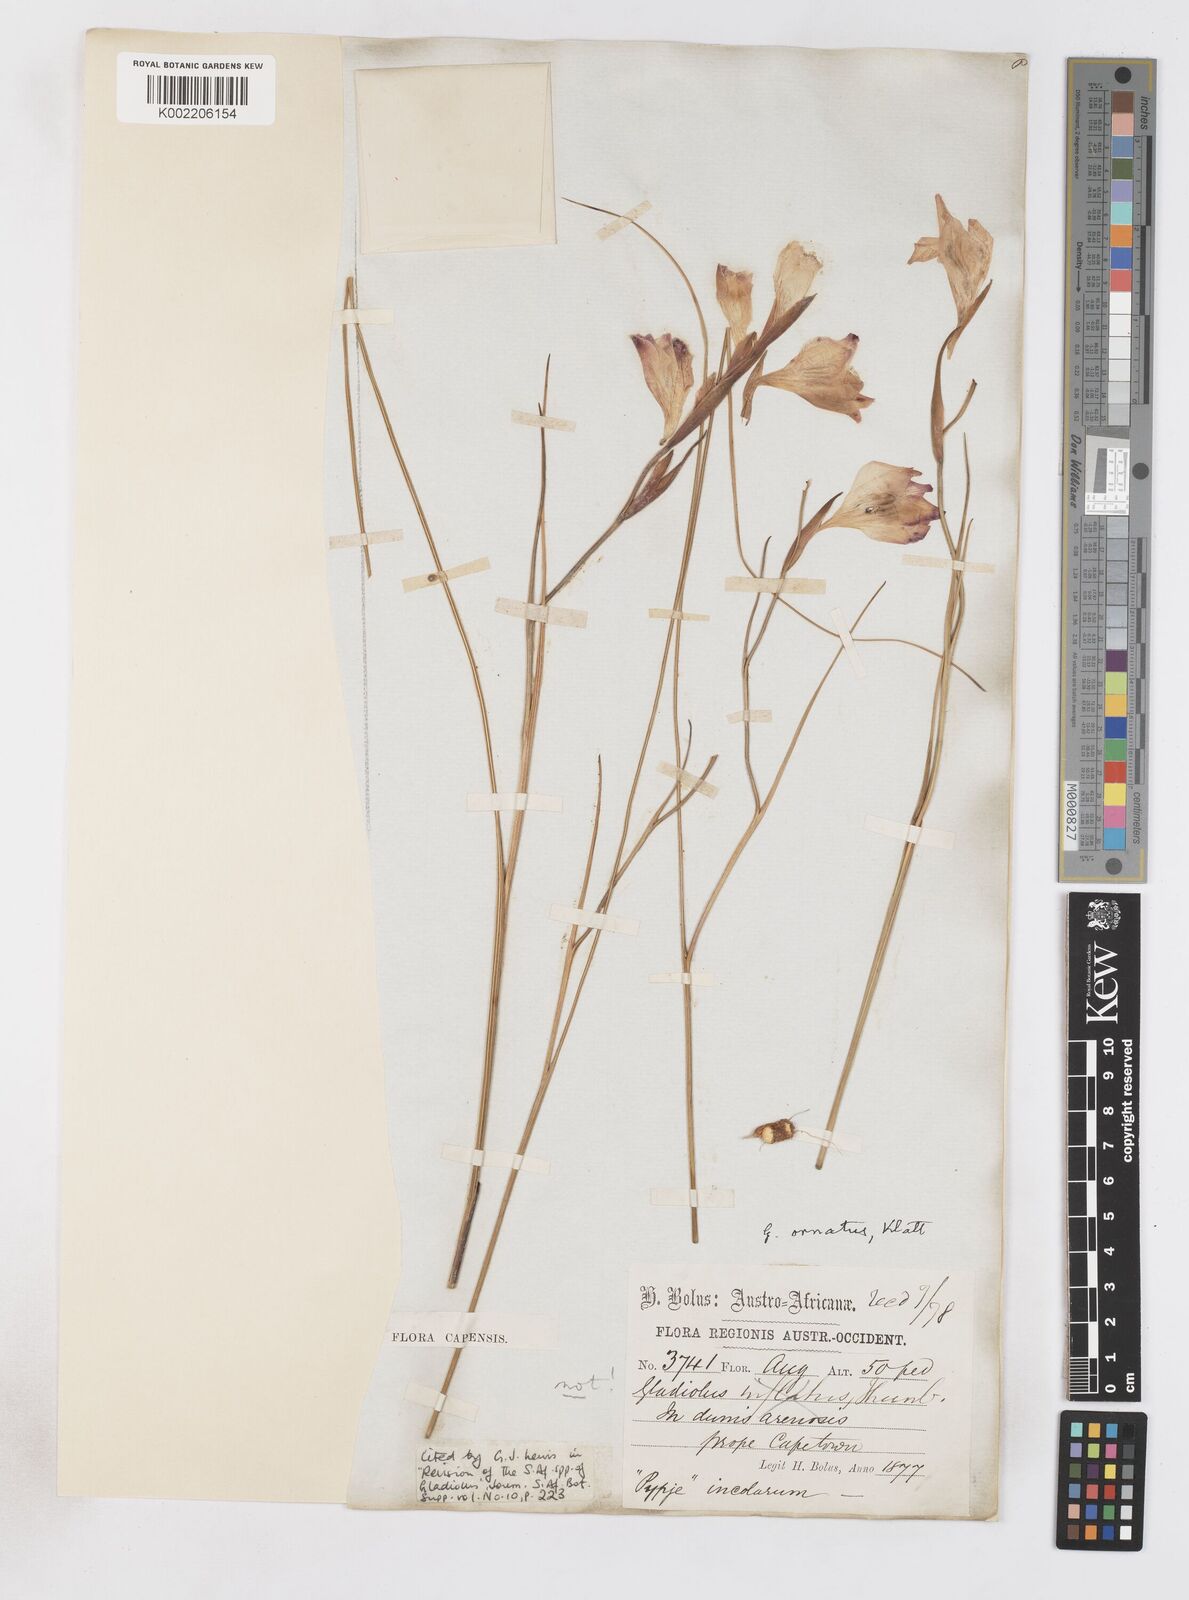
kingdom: Plantae
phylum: Tracheophyta
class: Liliopsida
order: Asparagales
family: Iridaceae
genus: Gladiolus
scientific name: Gladiolus ornatus
